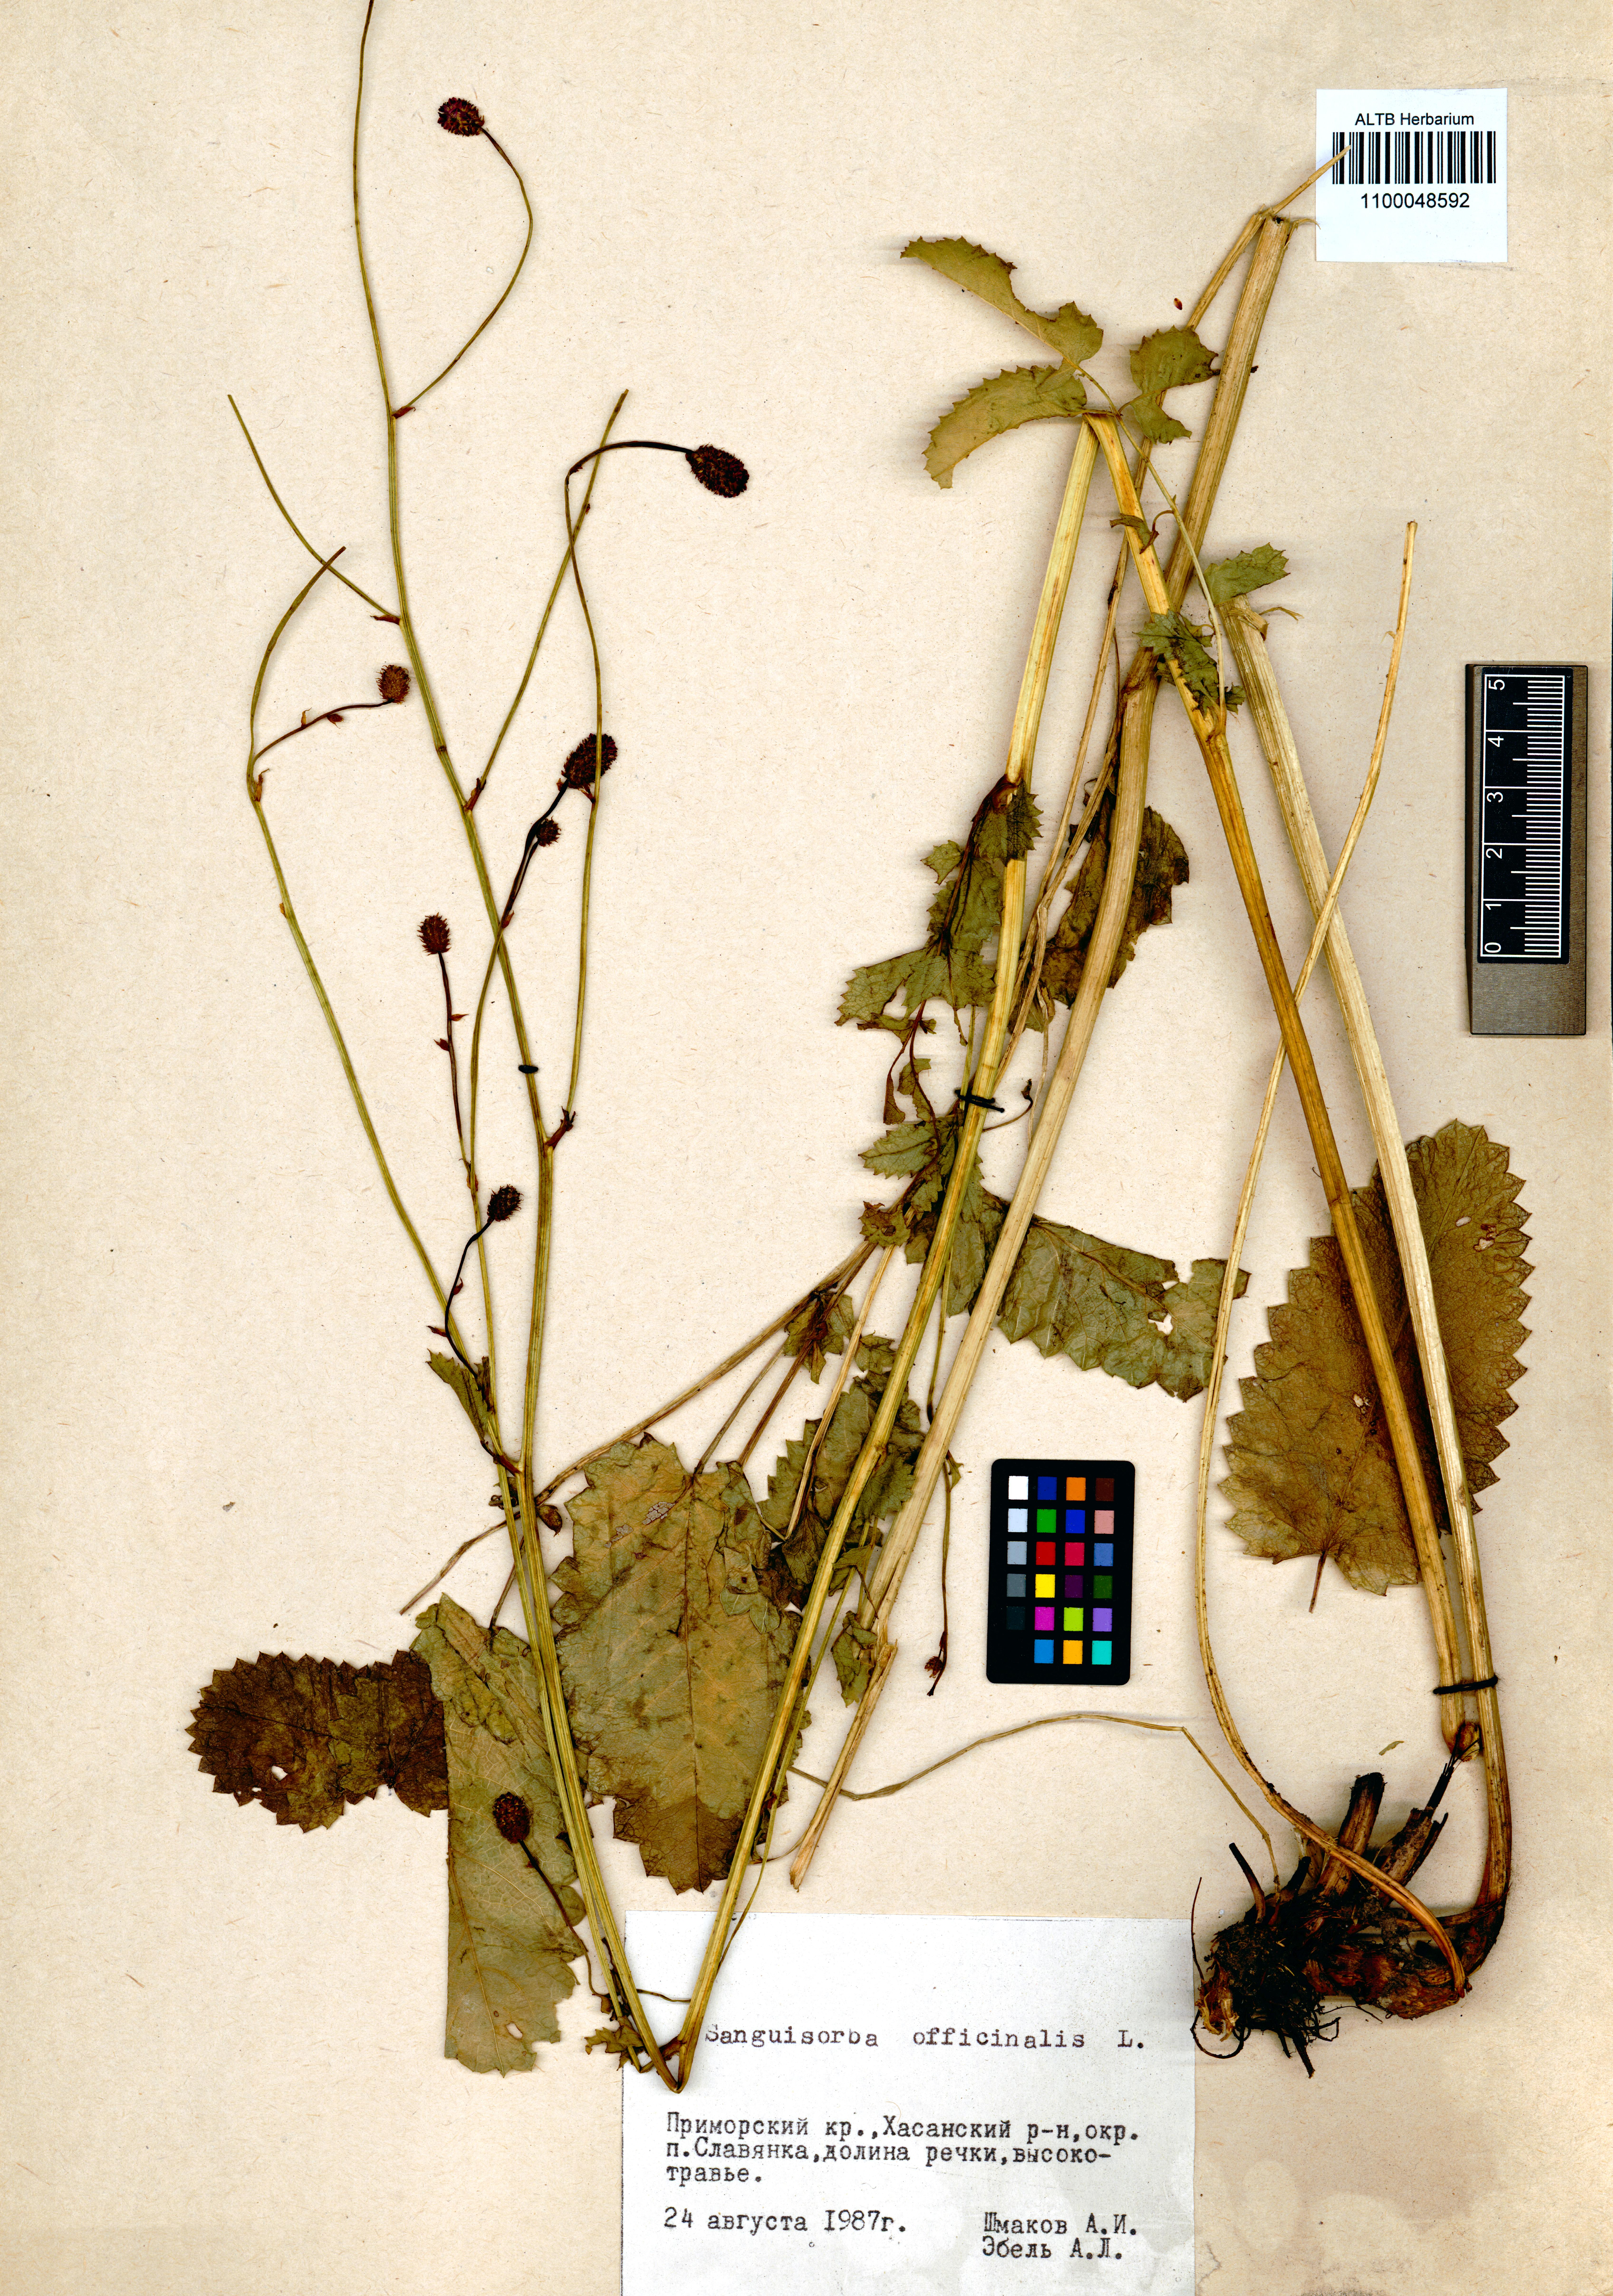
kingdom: Plantae
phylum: Tracheophyta
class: Magnoliopsida
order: Rosales
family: Rosaceae
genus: Sanguisorba
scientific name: Sanguisorba officinalis
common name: Great burnet
